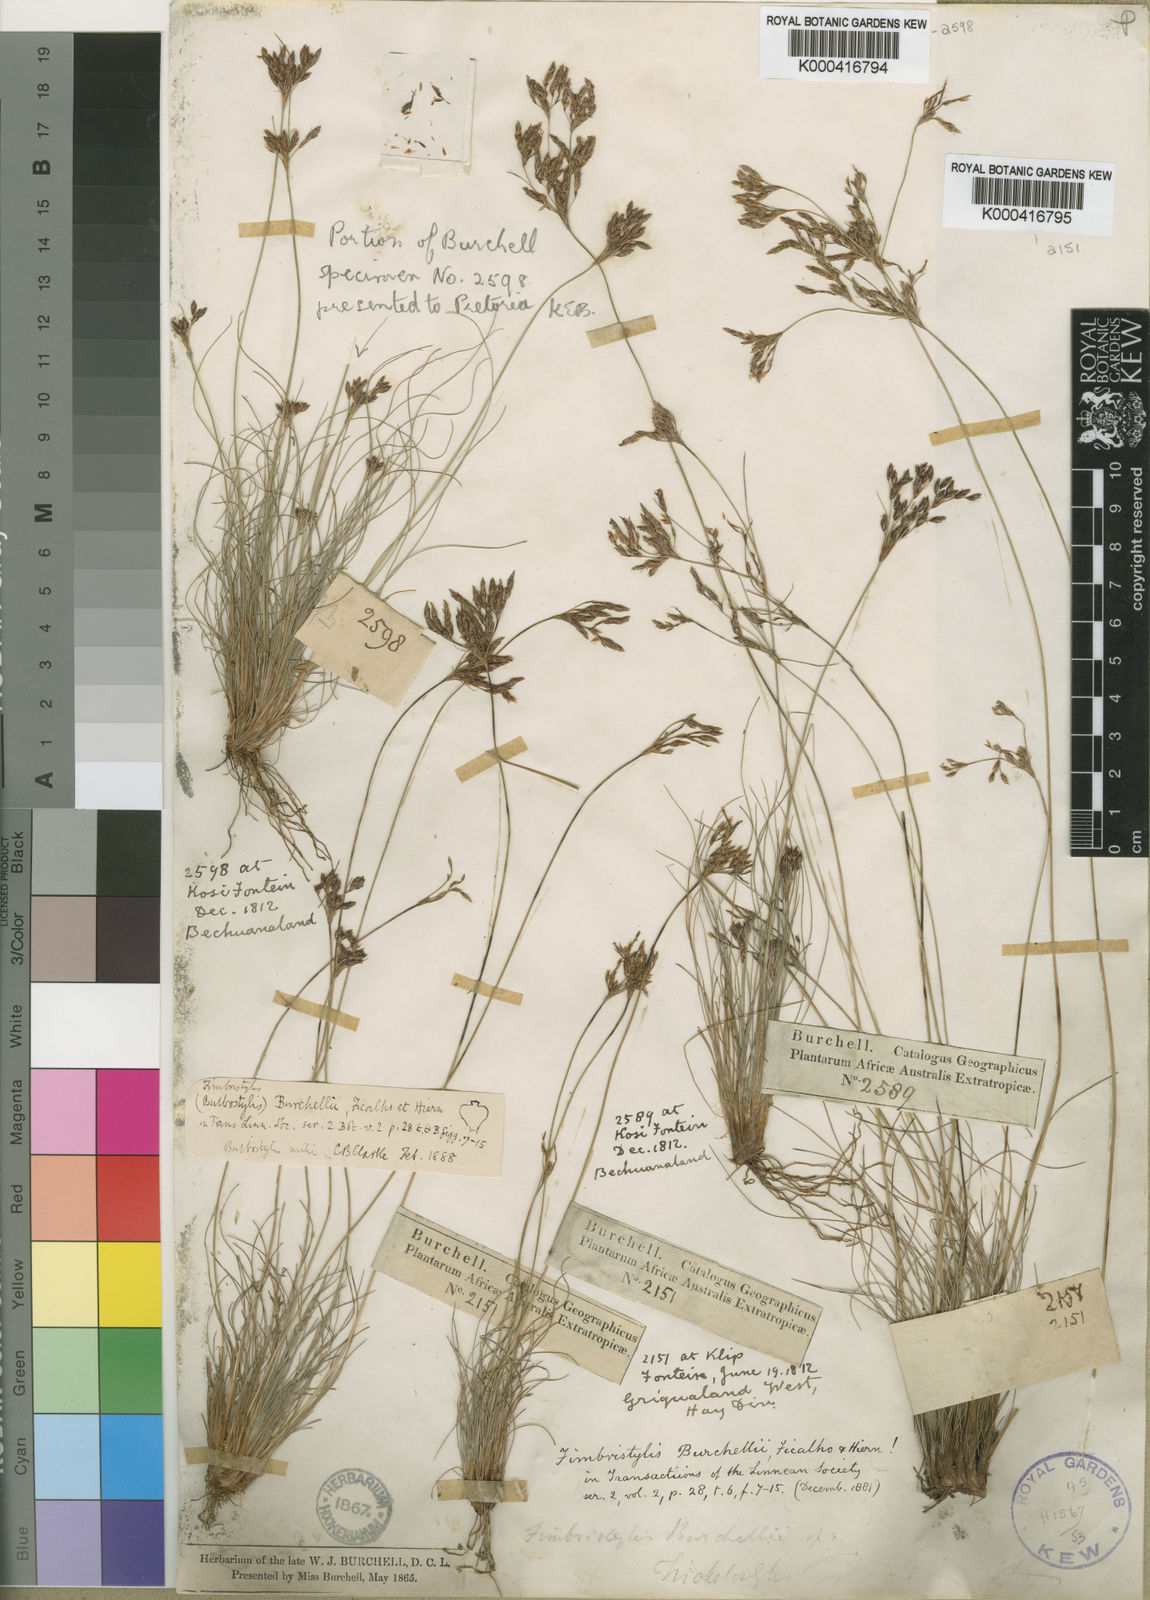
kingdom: Plantae
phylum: Tracheophyta
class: Liliopsida
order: Poales
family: Cyperaceae
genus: Bulbostylis
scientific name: Bulbostylis burchellii
